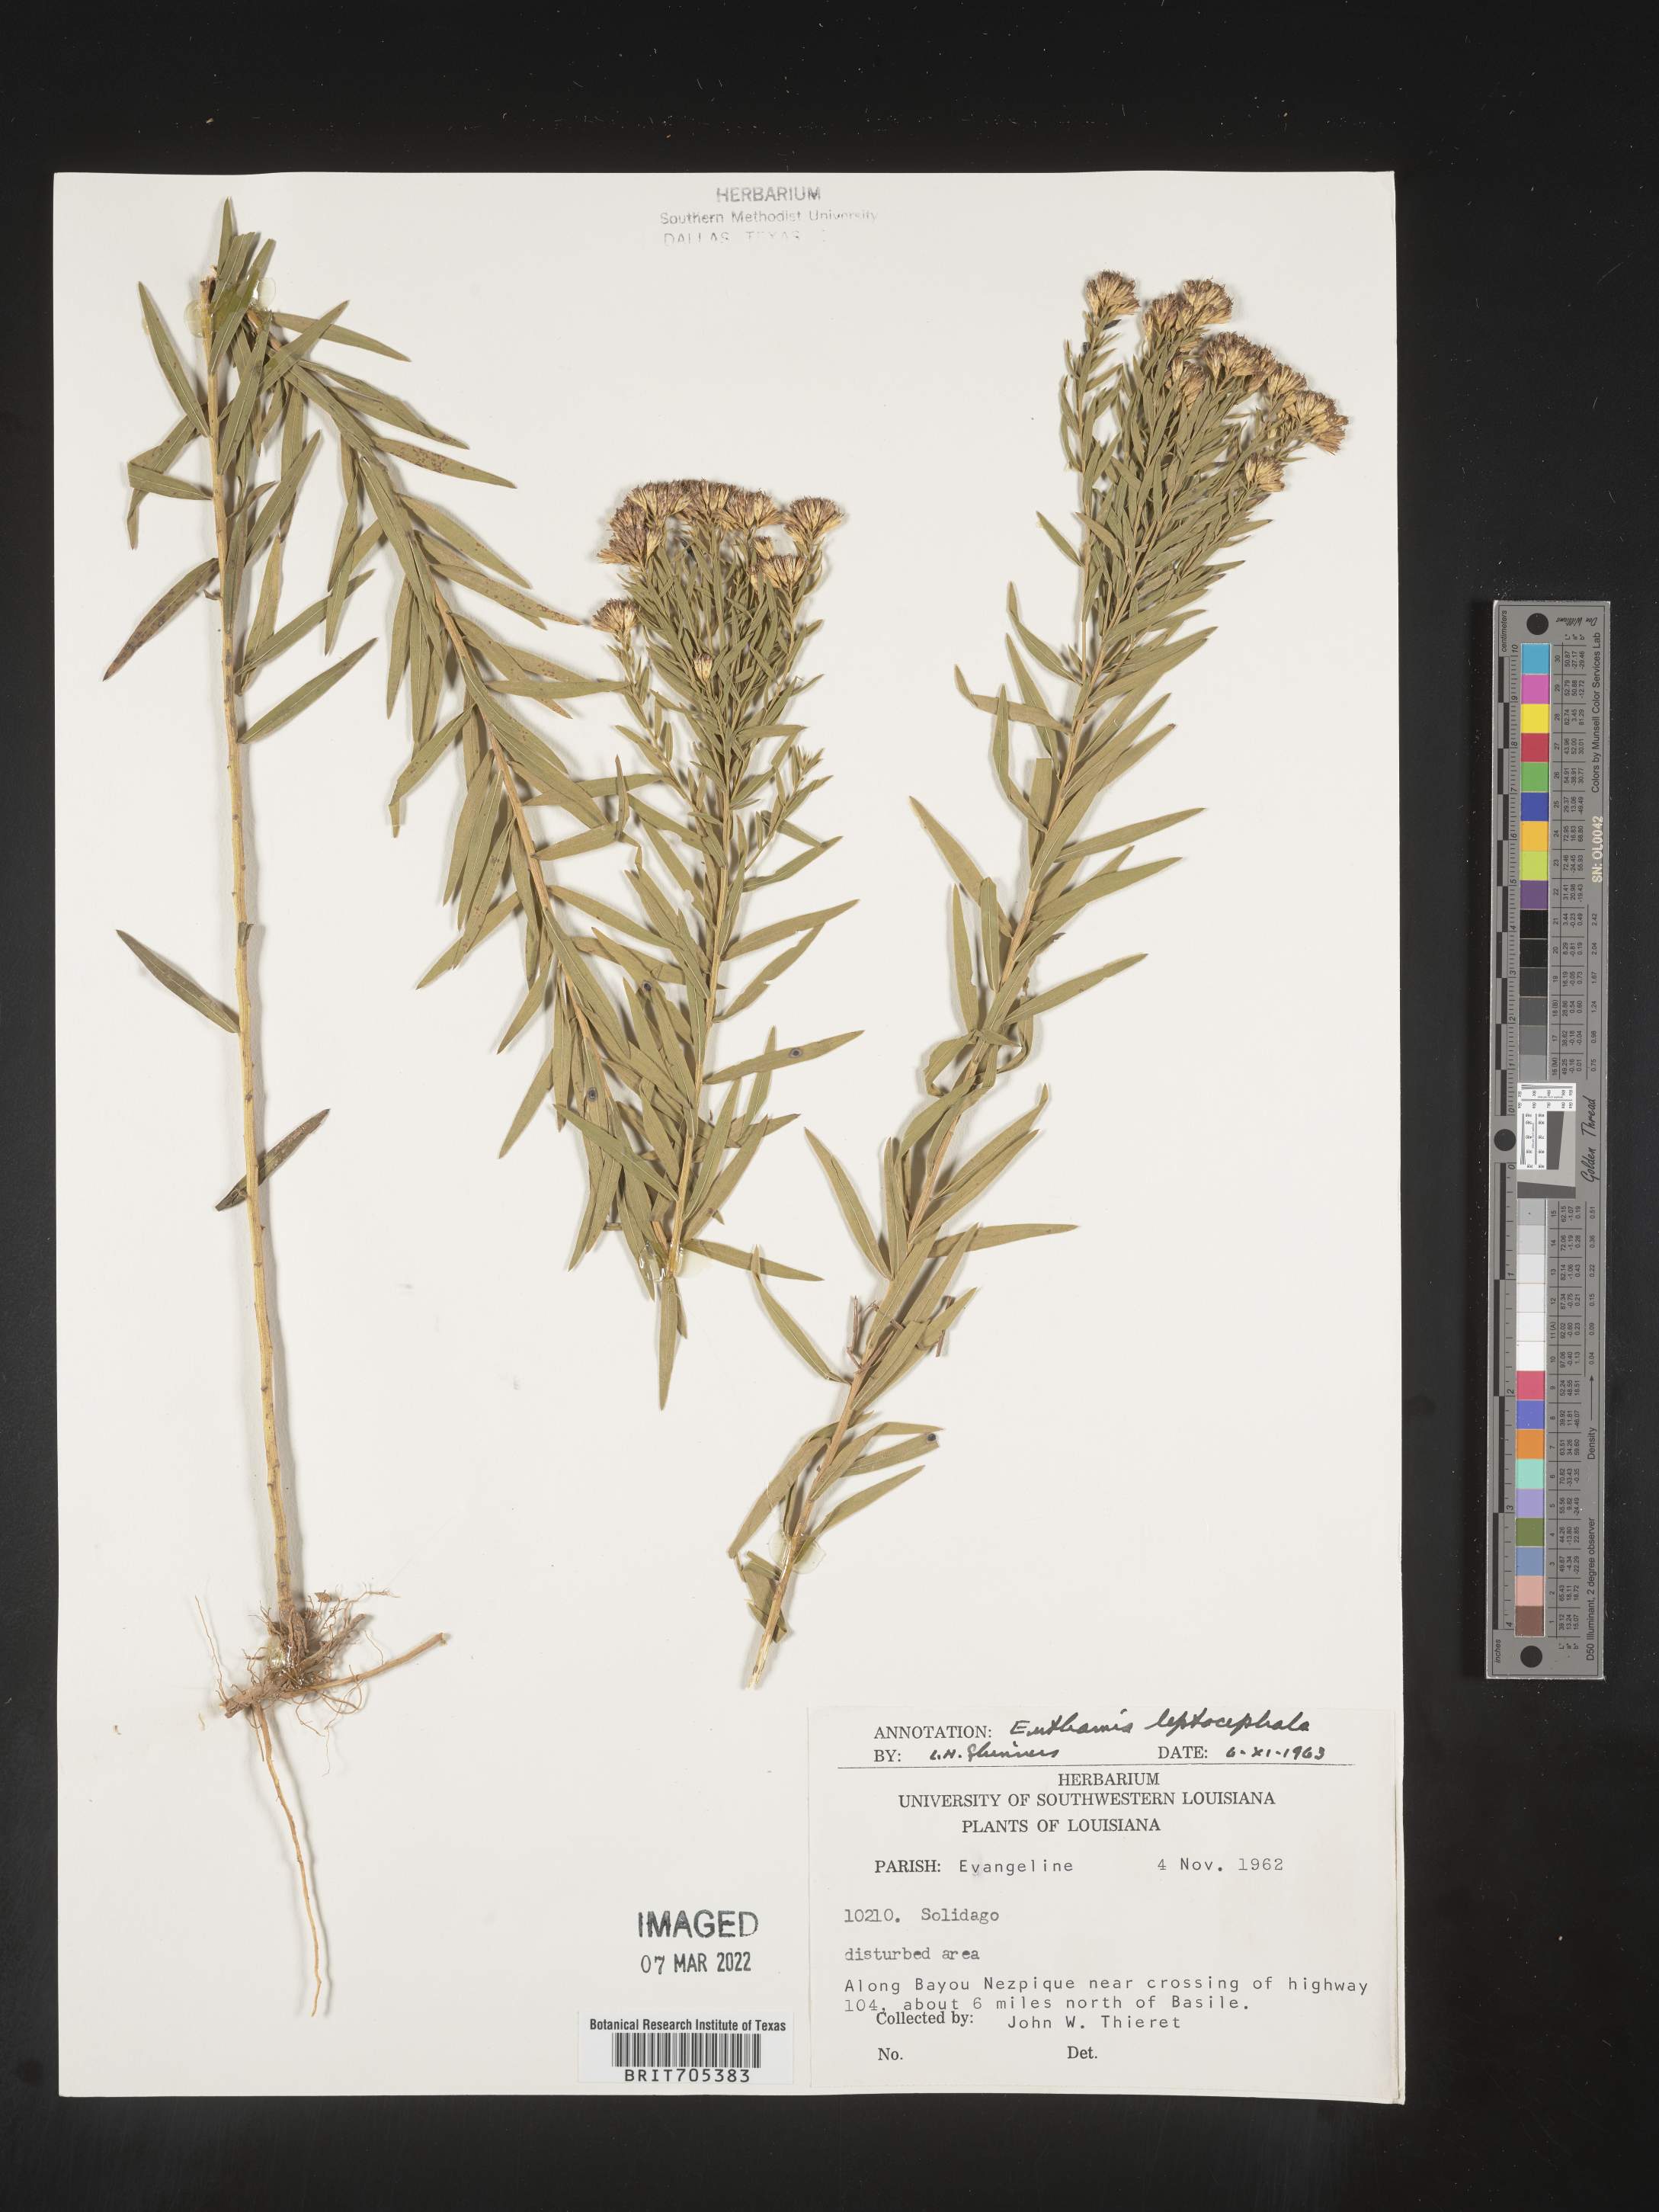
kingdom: Plantae
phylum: Tracheophyta
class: Magnoliopsida
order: Asterales
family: Asteraceae
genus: Euthamia
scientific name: Euthamia leptocephala
